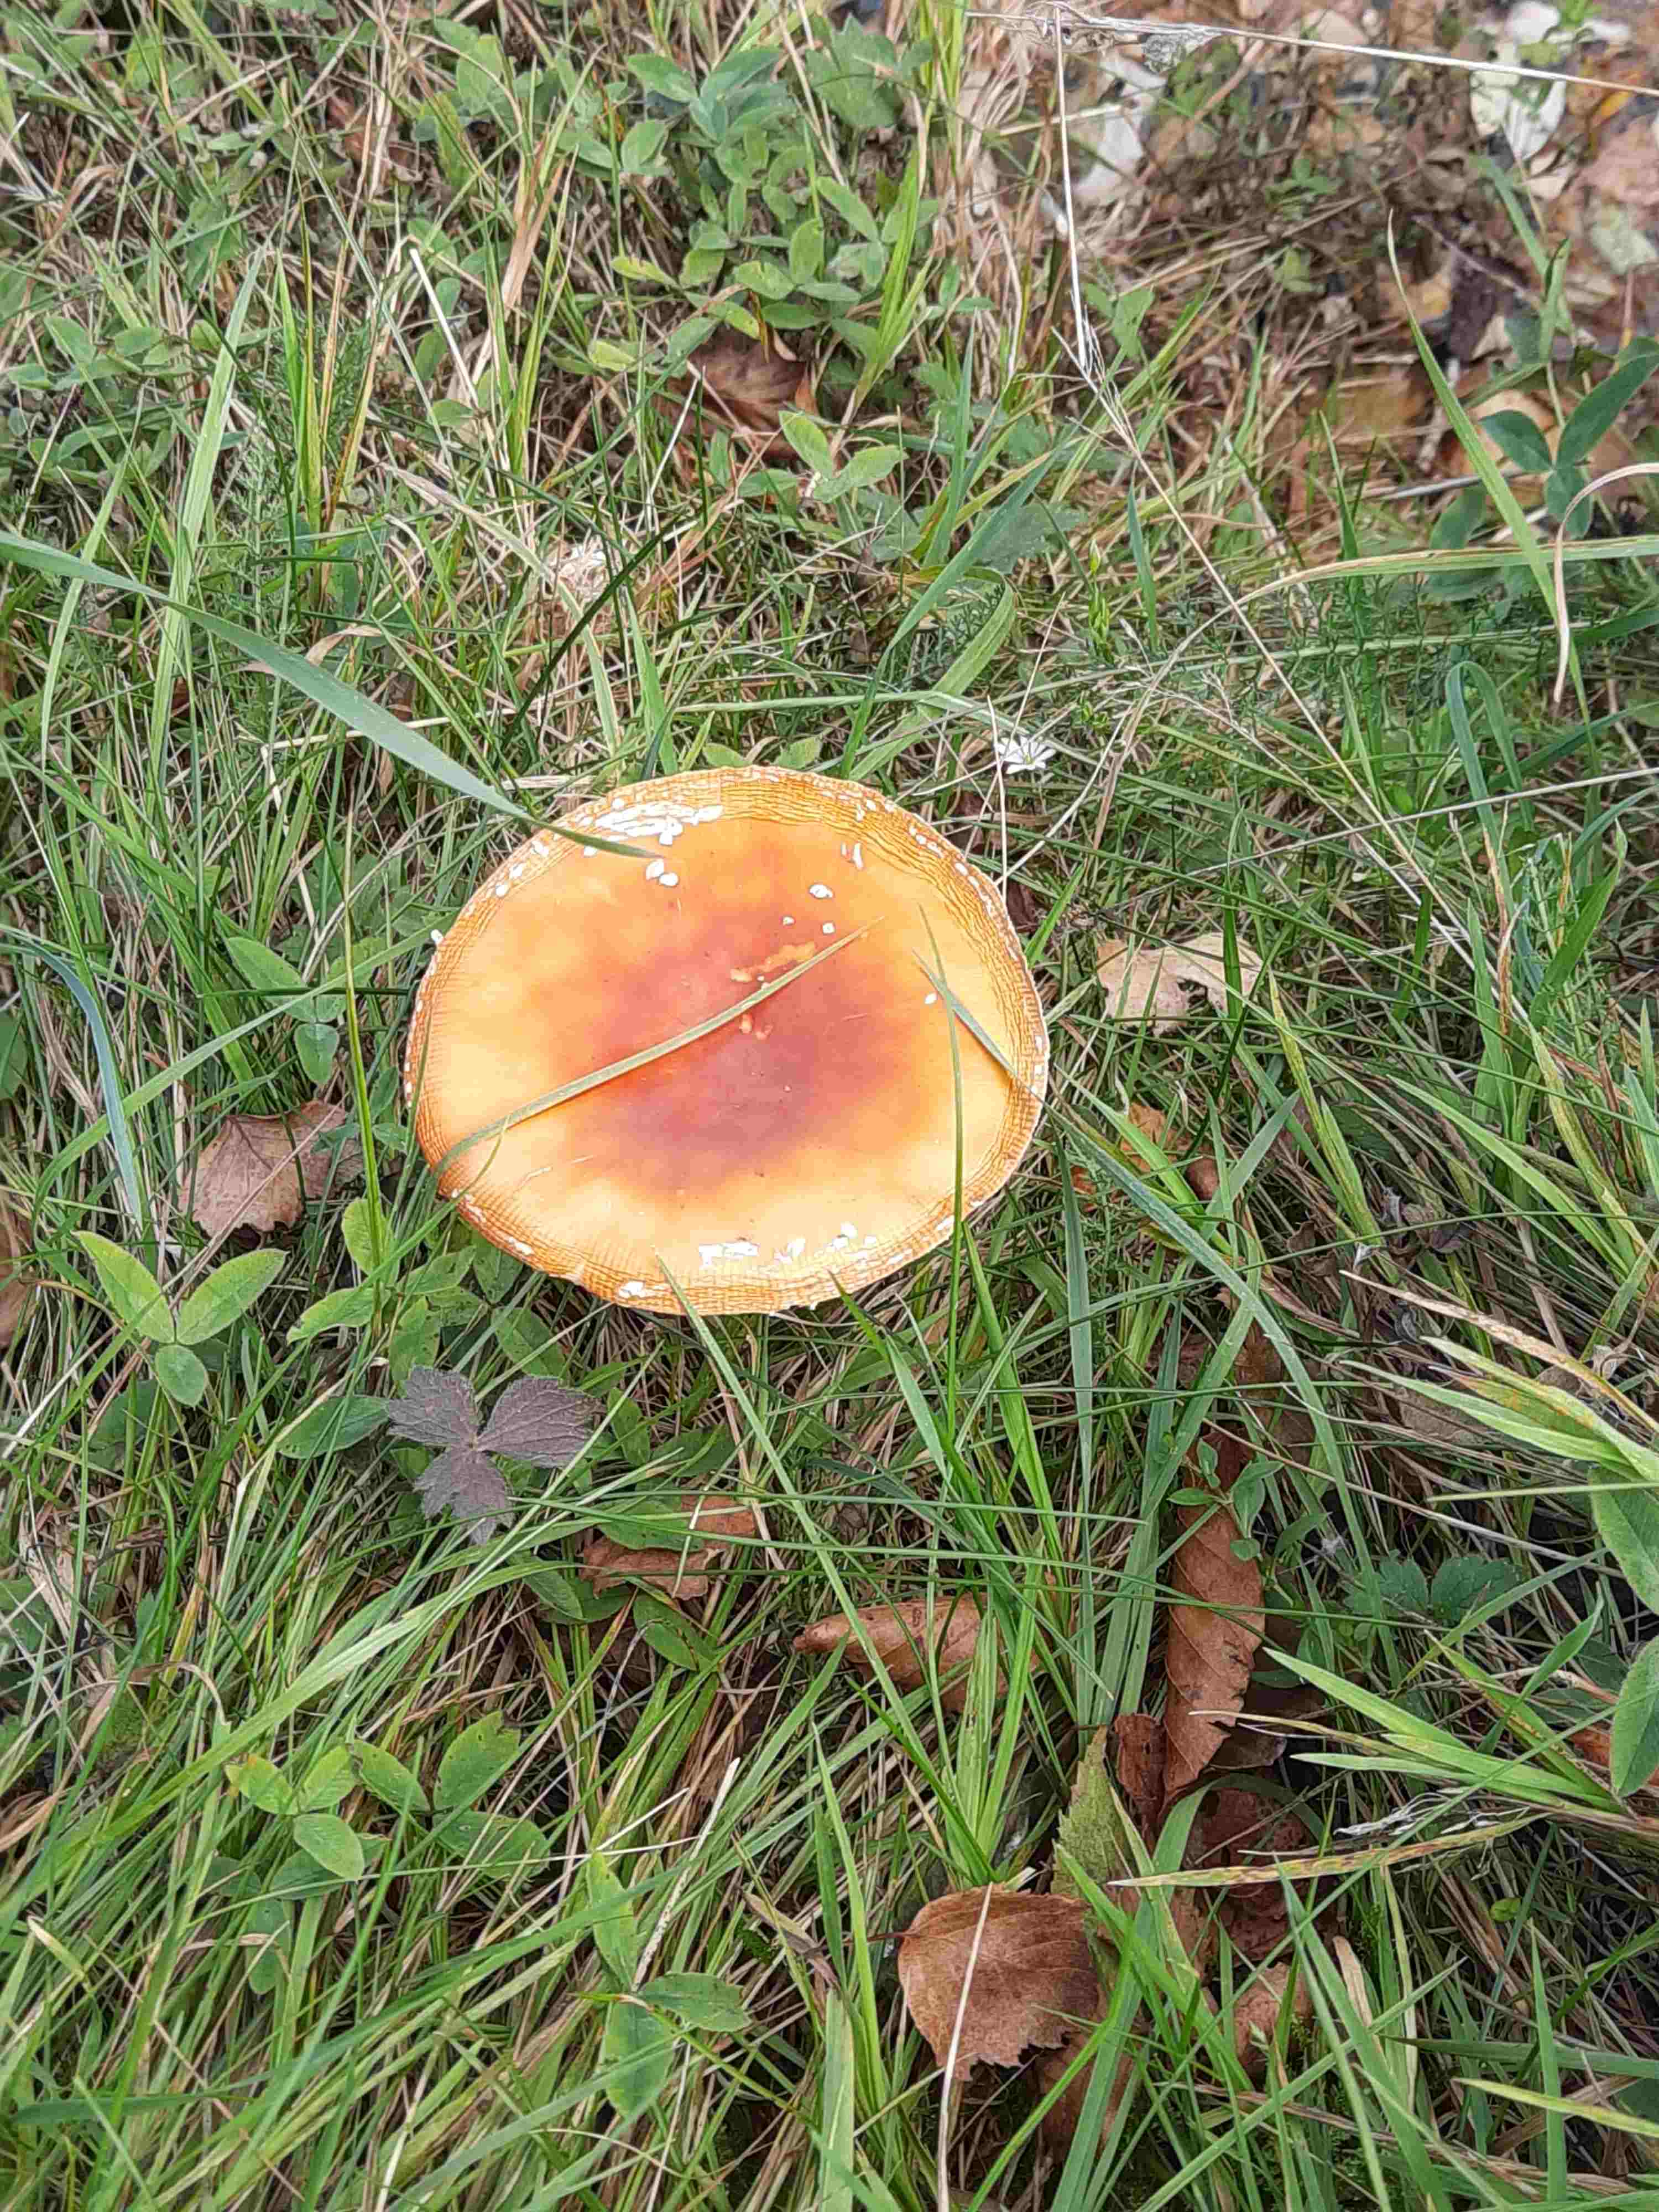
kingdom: Fungi
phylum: Basidiomycota
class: Agaricomycetes
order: Agaricales
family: Amanitaceae
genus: Amanita
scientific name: Amanita muscaria
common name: rød fluesvamp
